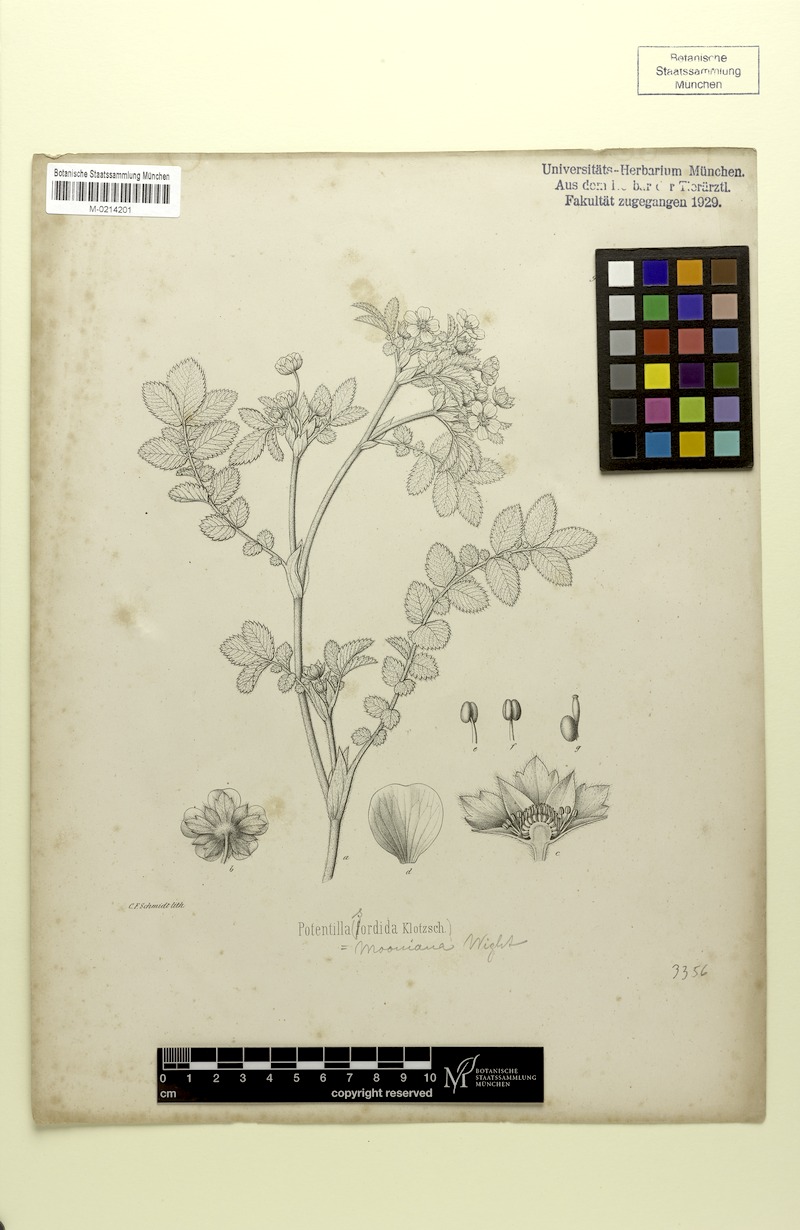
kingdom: Plantae
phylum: Tracheophyta
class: Magnoliopsida
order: Rosales
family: Rosaceae
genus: Argentina
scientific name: Argentina polyphylla
